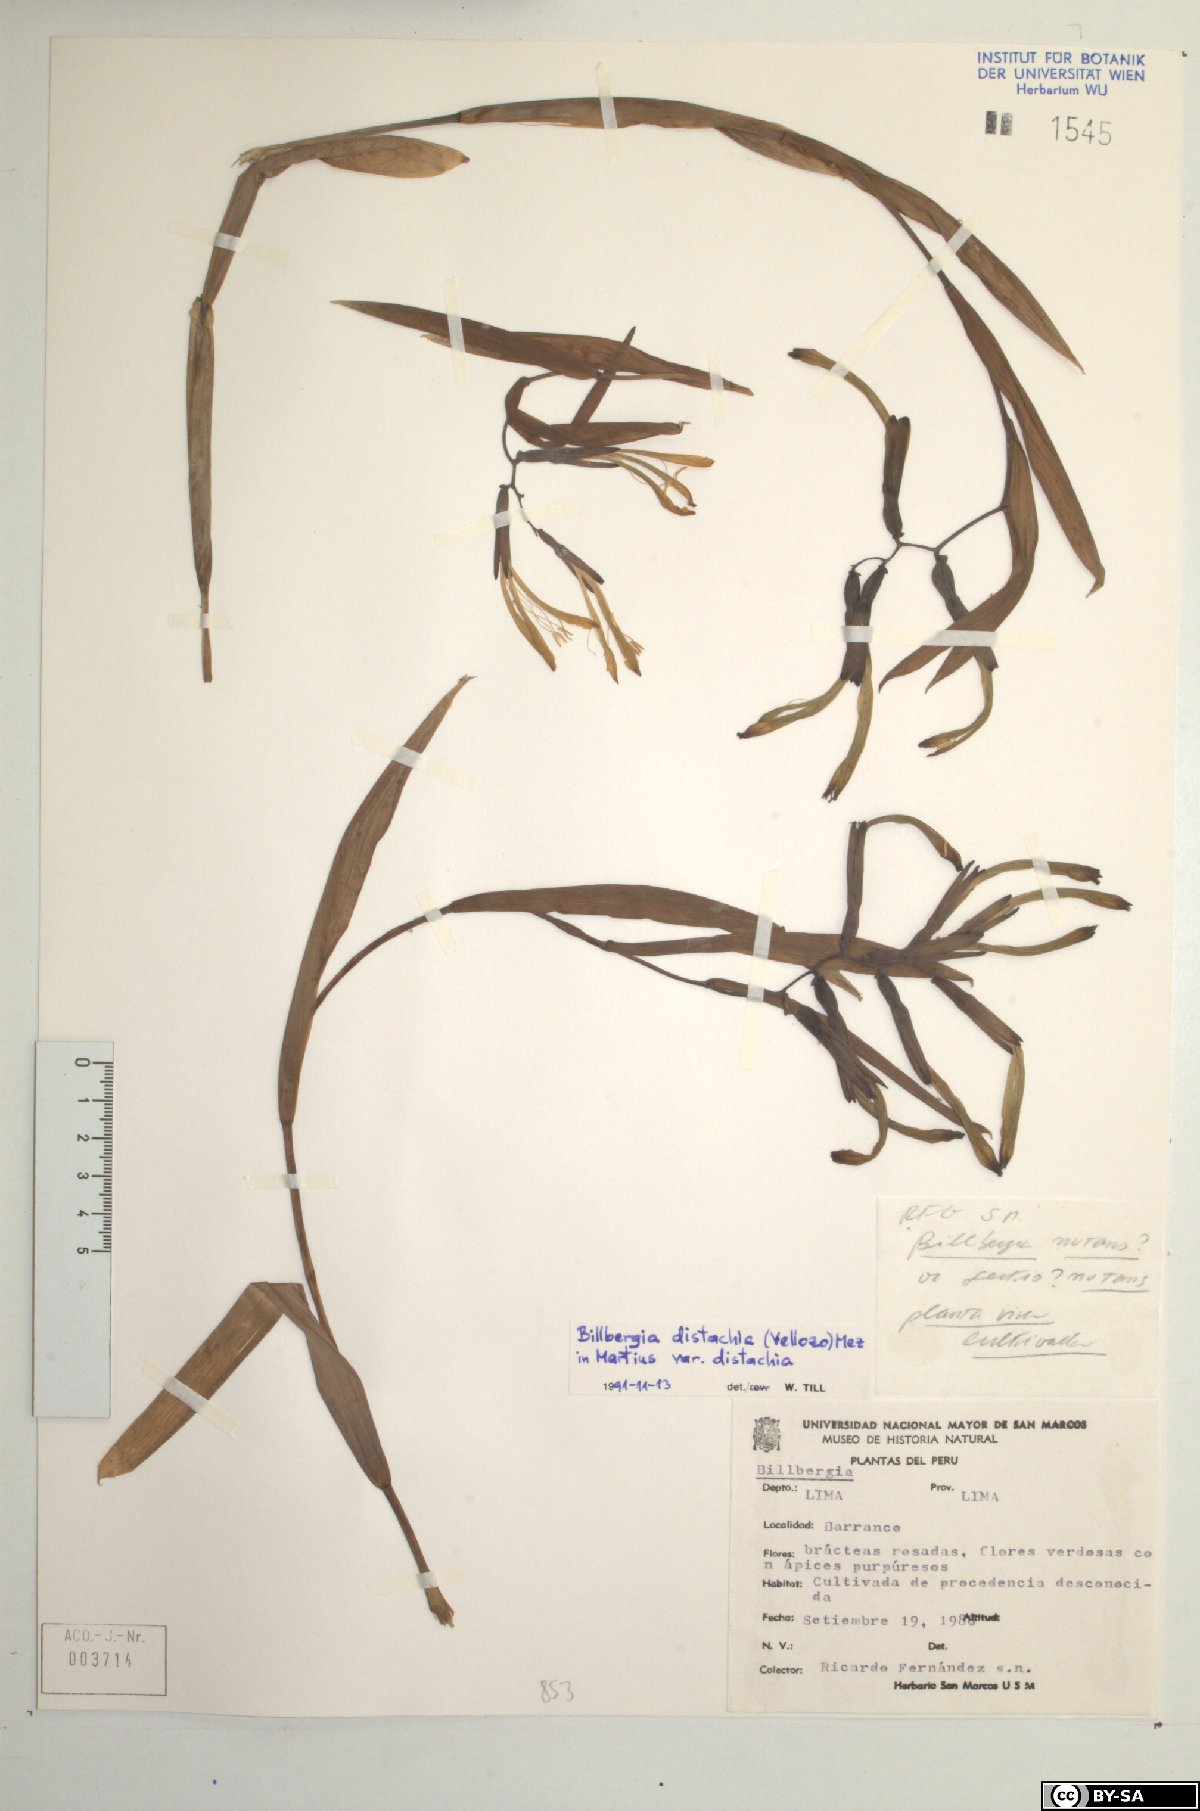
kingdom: Plantae
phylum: Tracheophyta
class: Liliopsida
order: Poales
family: Bromeliaceae
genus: Billbergia
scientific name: Billbergia
